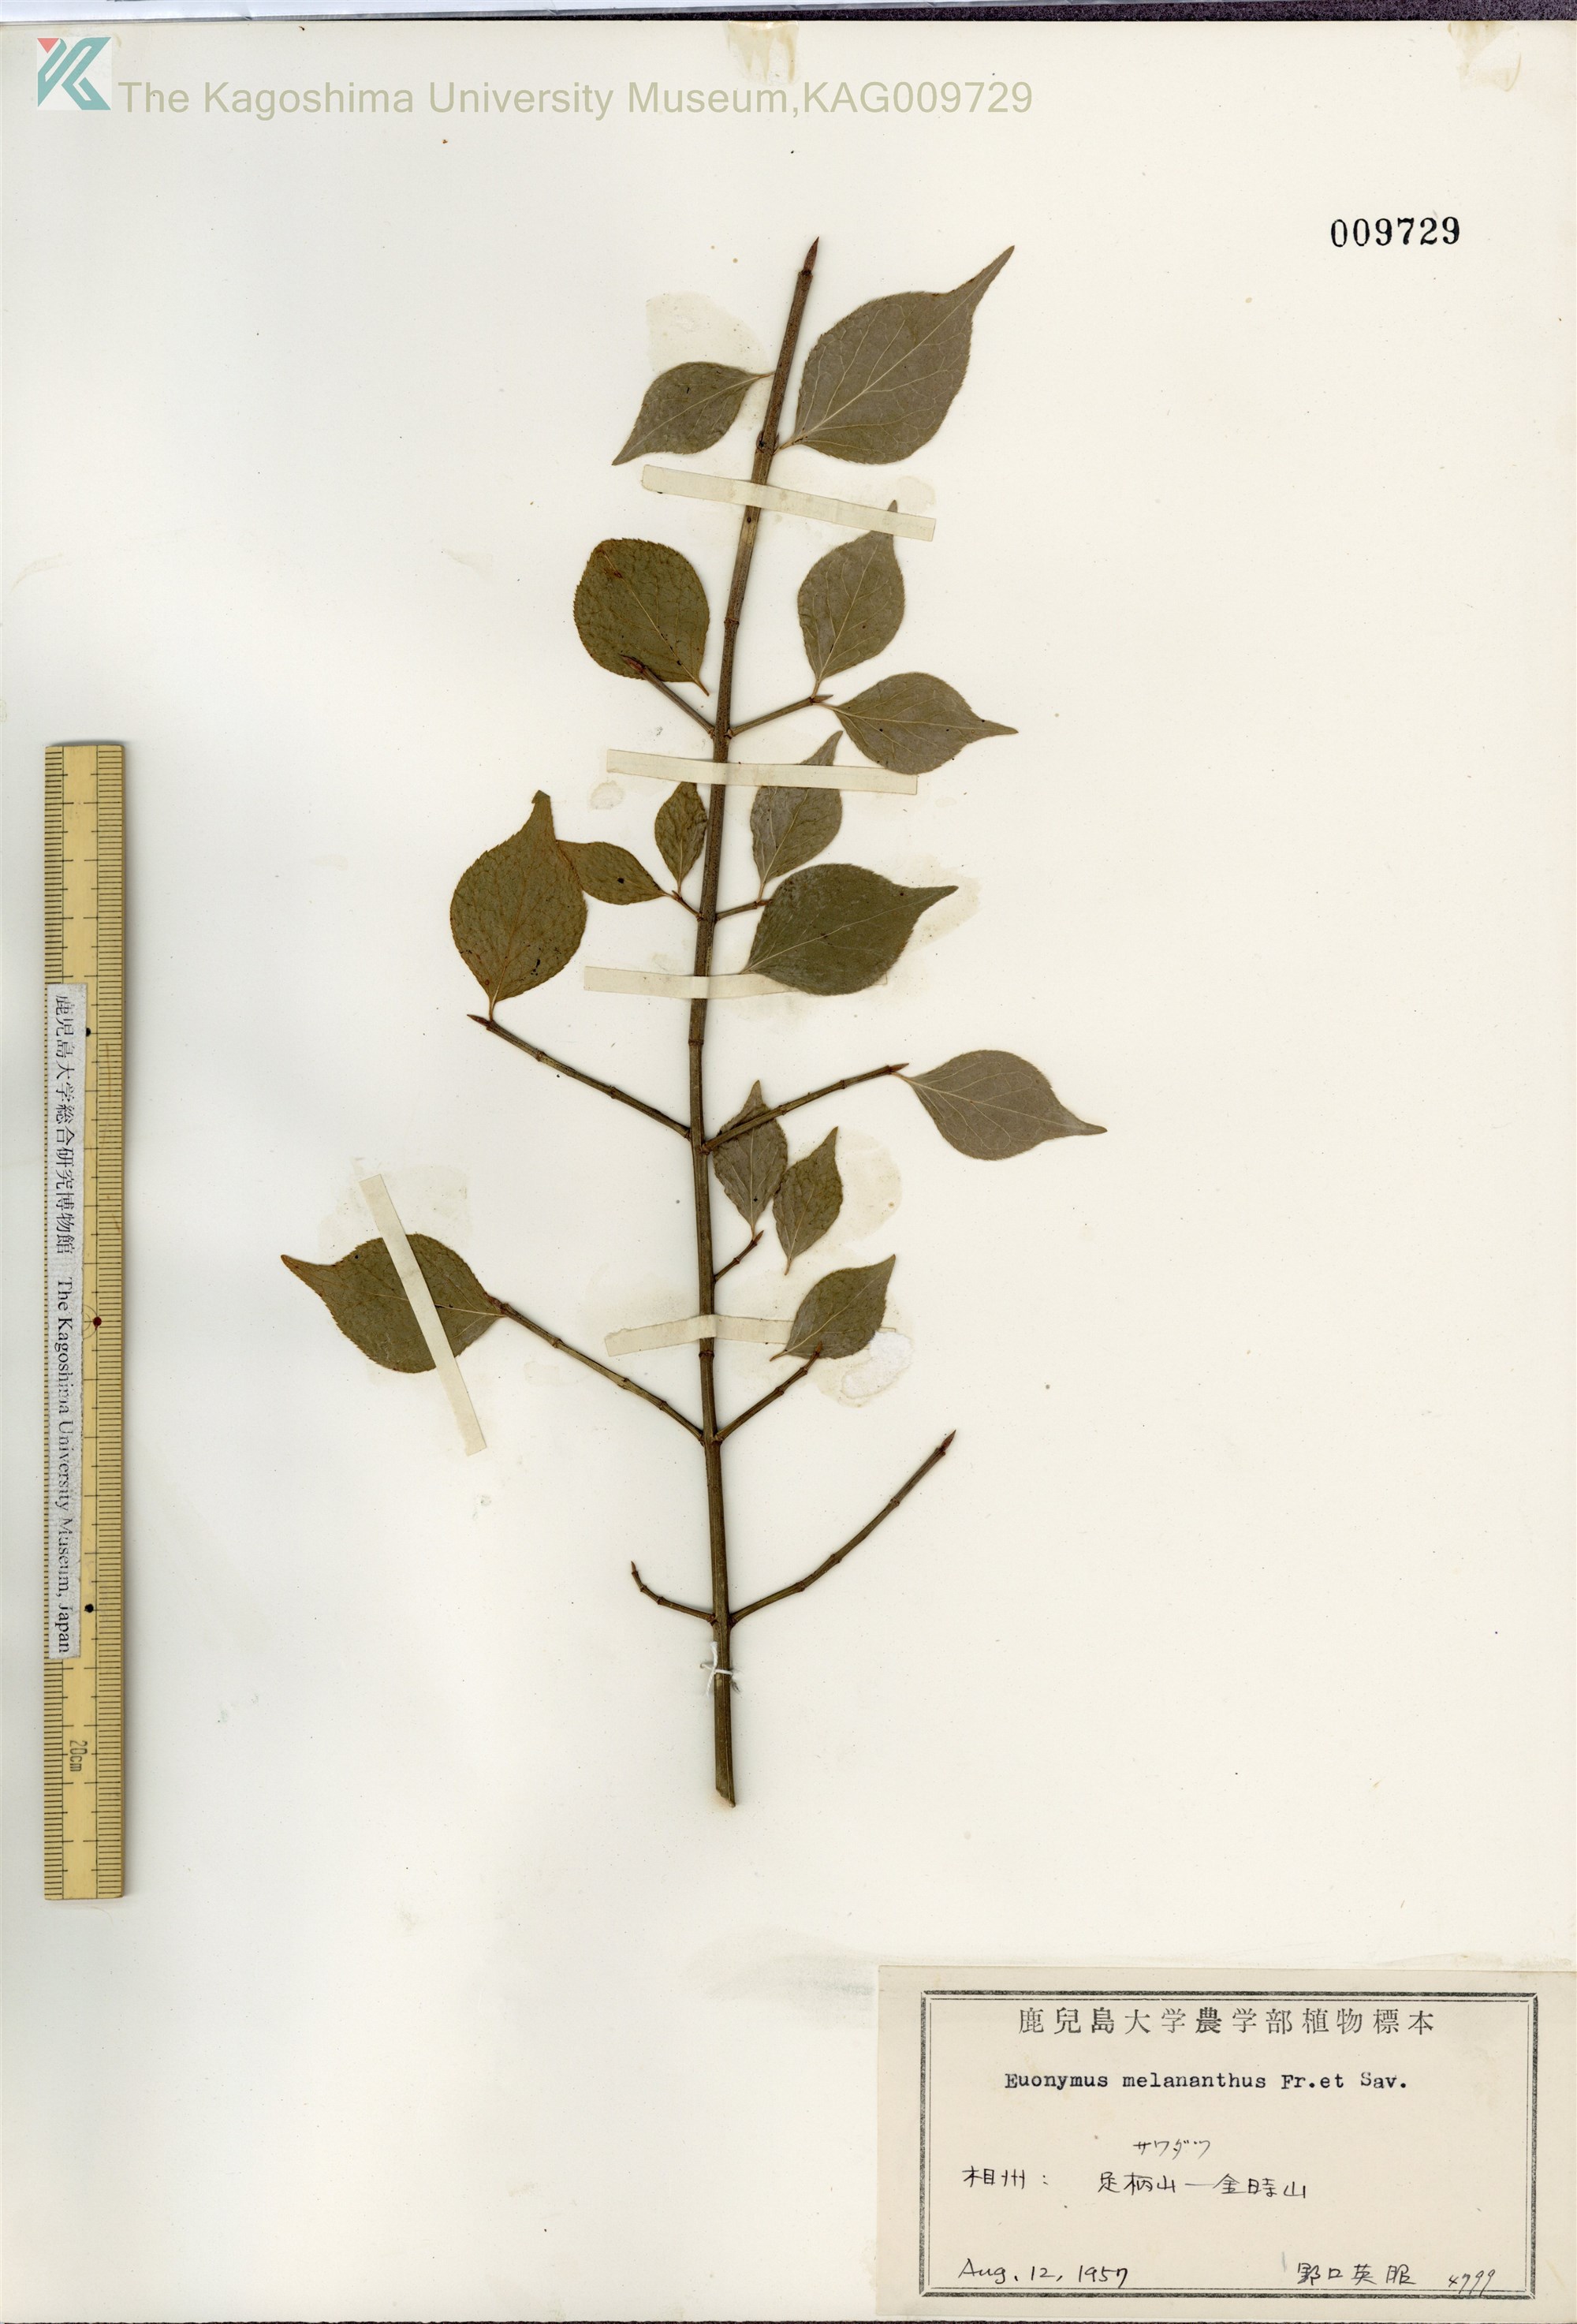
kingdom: Plantae
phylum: Tracheophyta
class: Magnoliopsida
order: Celastrales
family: Celastraceae
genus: Euonymus
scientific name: Euonymus melananthus
